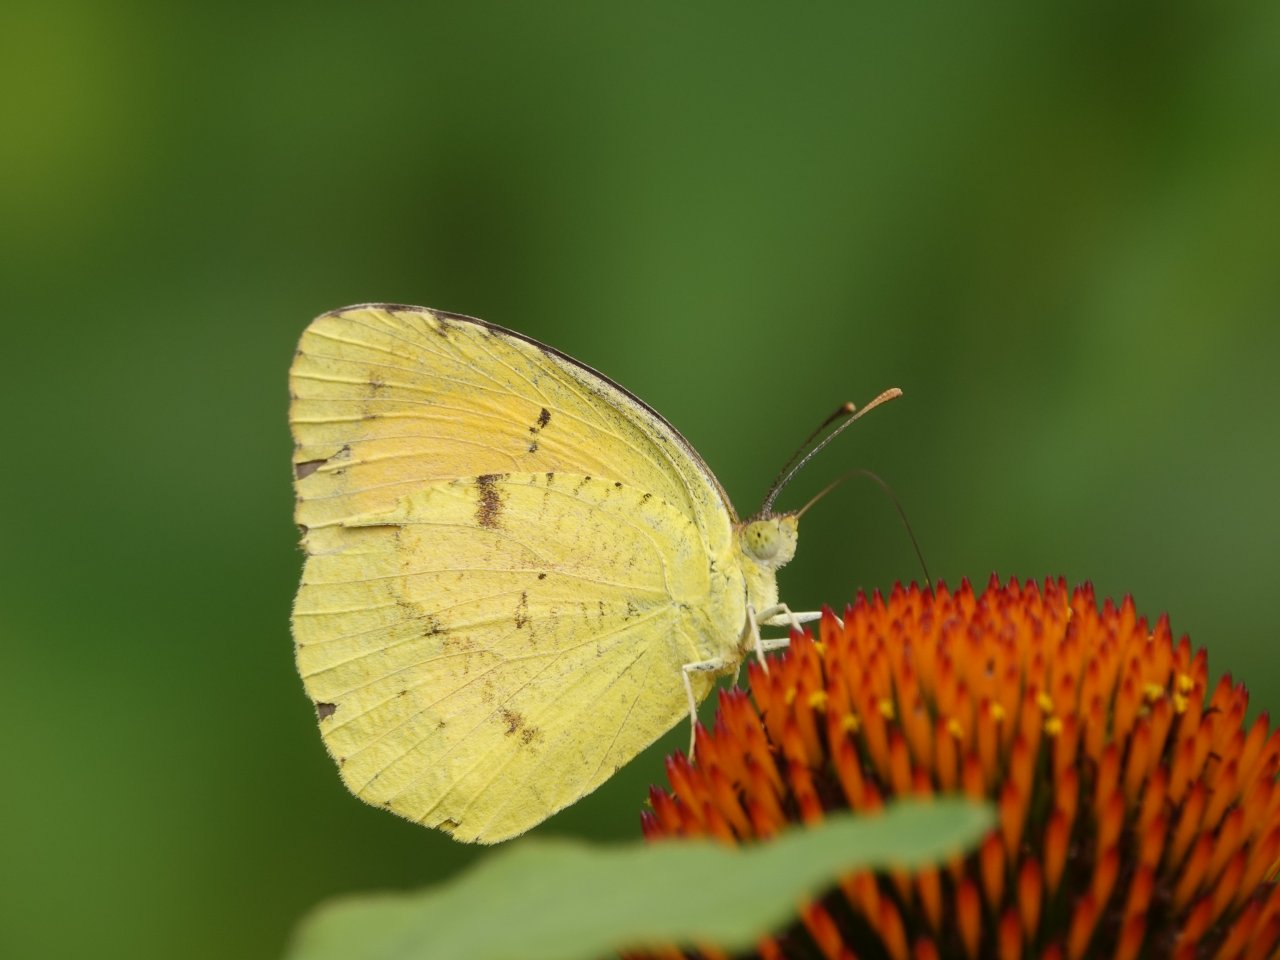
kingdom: Animalia
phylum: Arthropoda
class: Insecta
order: Lepidoptera
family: Pieridae
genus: Abaeis
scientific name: Abaeis nicippe
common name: Sleepy Orange
